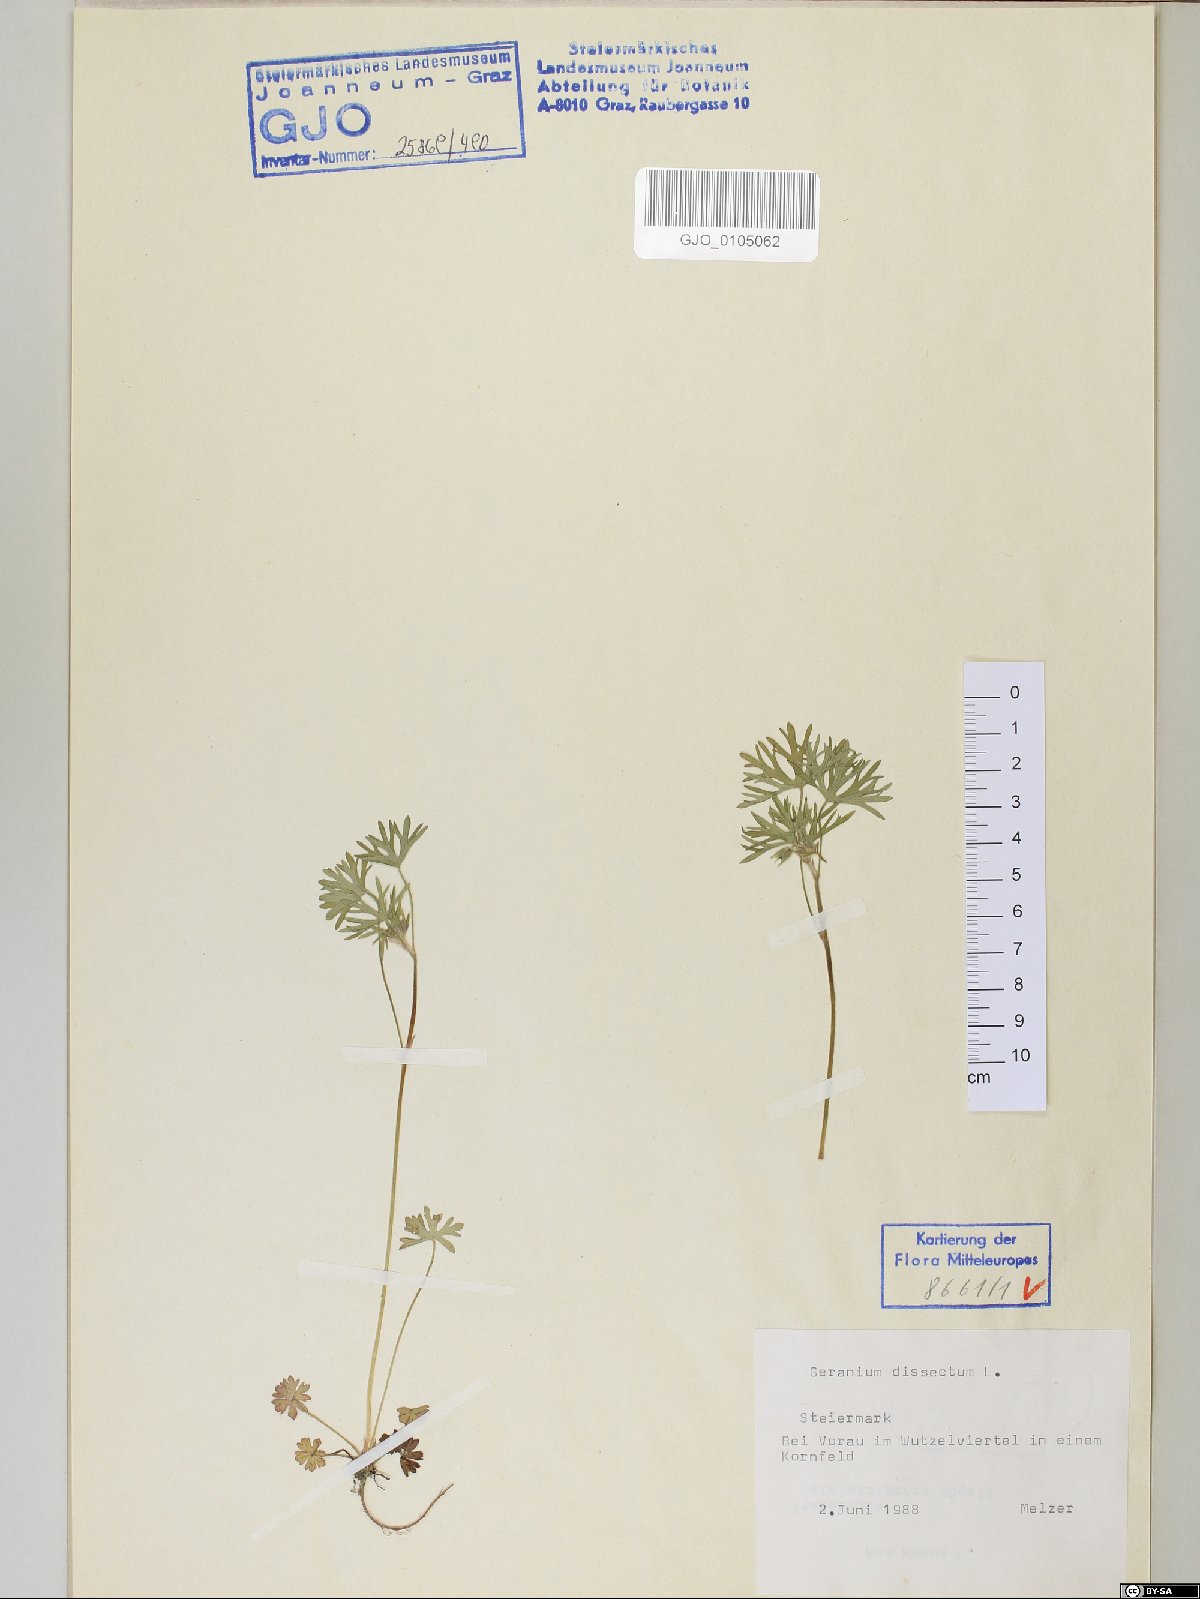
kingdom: Plantae
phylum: Tracheophyta
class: Magnoliopsida
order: Geraniales
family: Geraniaceae
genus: Geranium
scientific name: Geranium dissectum
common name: Cut-leaved crane's-bill
